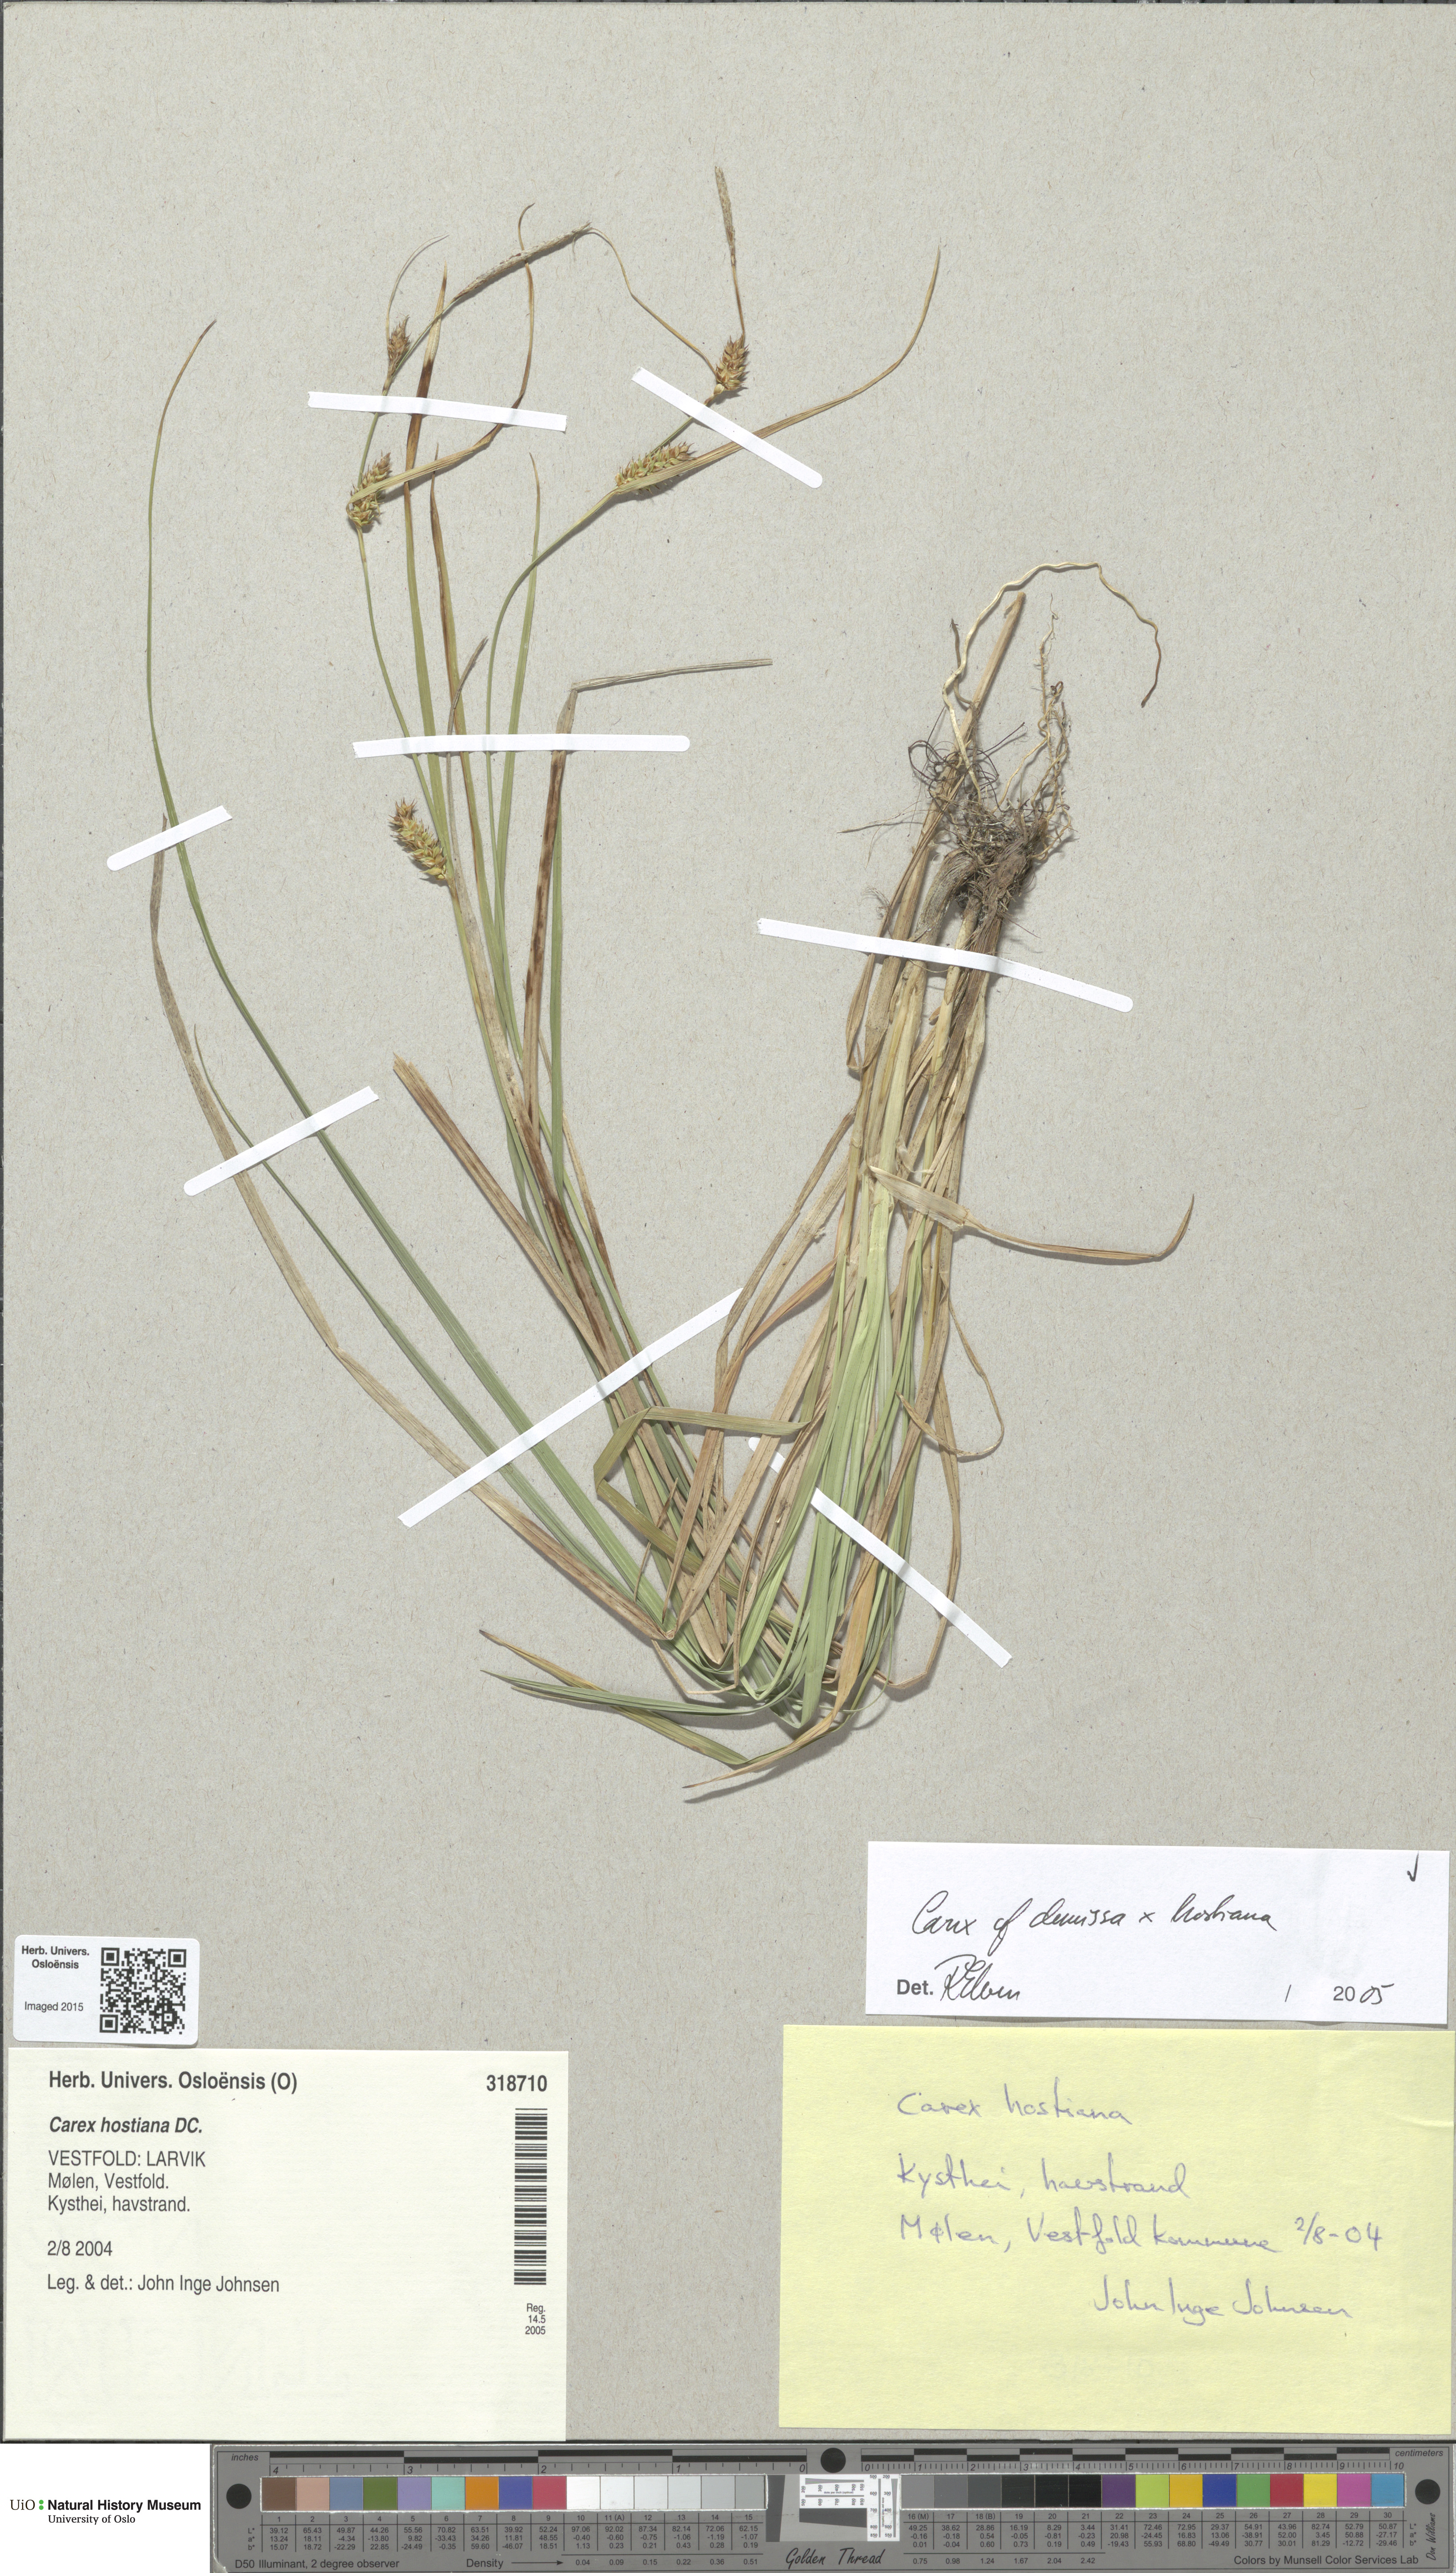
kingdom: Plantae
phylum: Tracheophyta
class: Liliopsida
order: Poales
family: Cyperaceae
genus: Carex
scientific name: Carex
